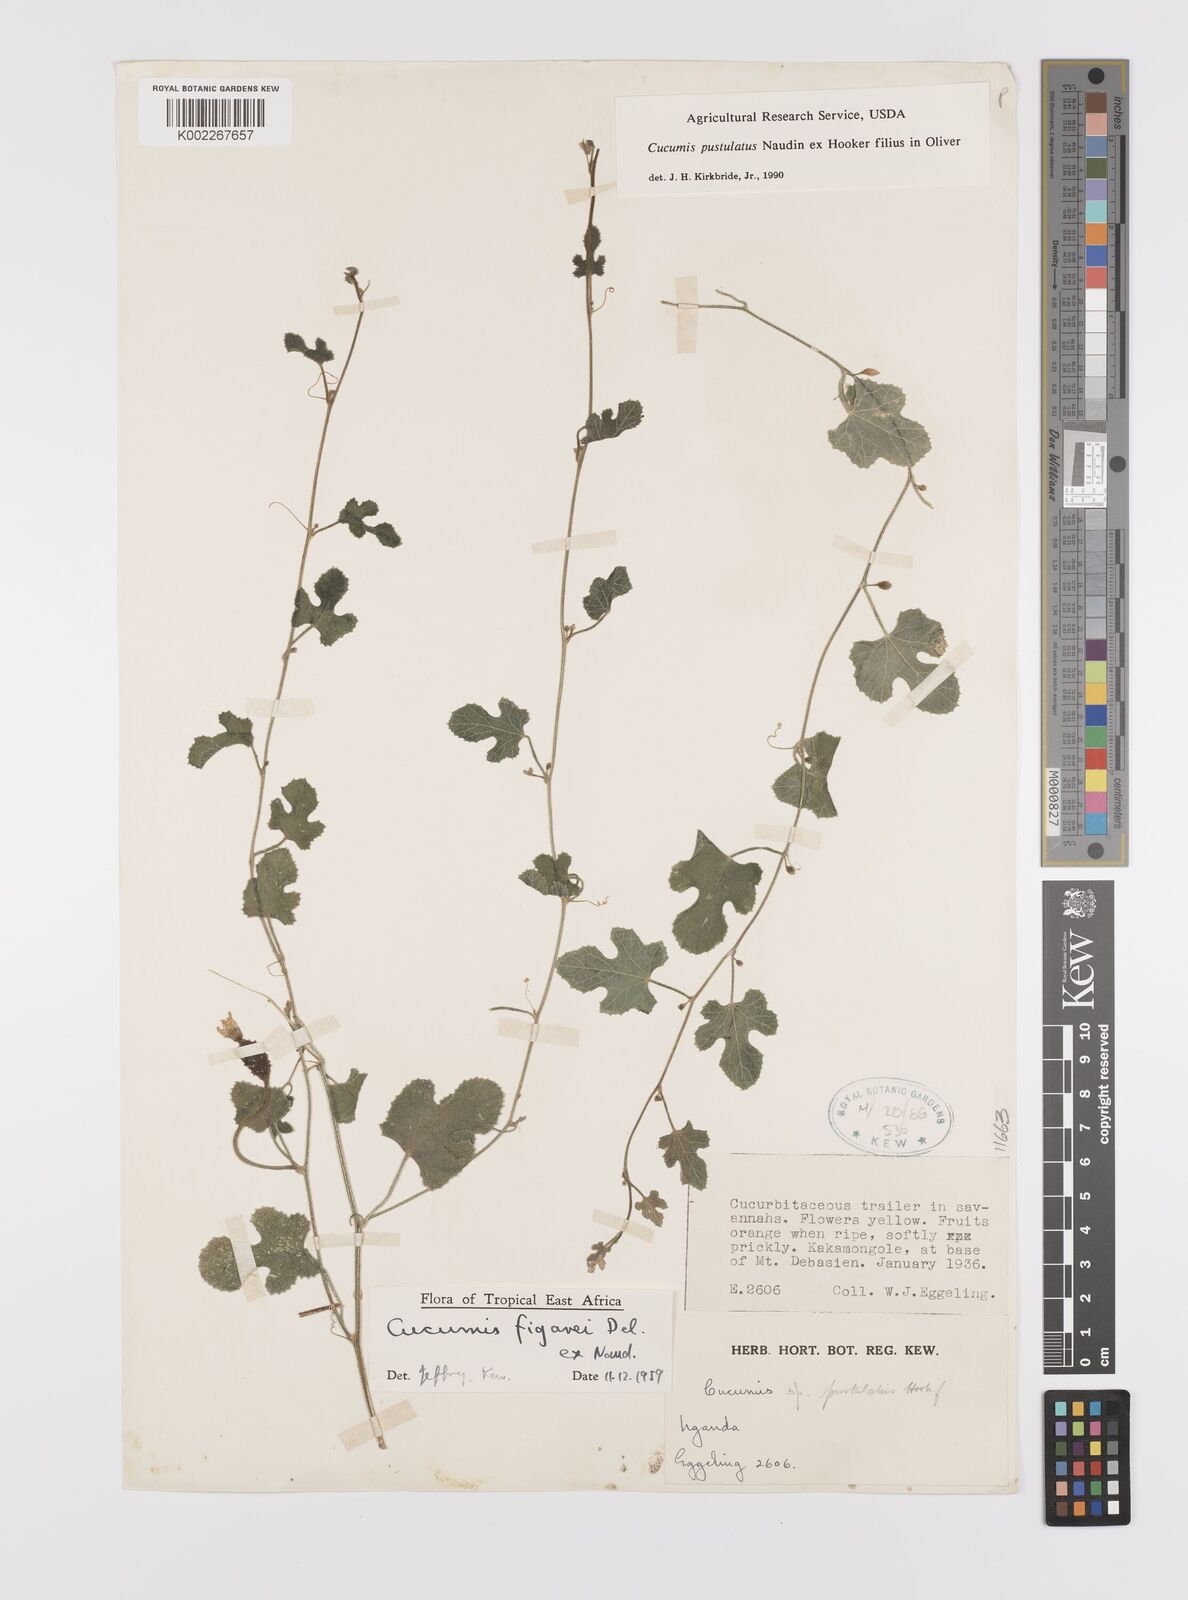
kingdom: Plantae
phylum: Tracheophyta
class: Magnoliopsida
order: Cucurbitales
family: Cucurbitaceae
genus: Cucumis
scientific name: Cucumis pustulatus
